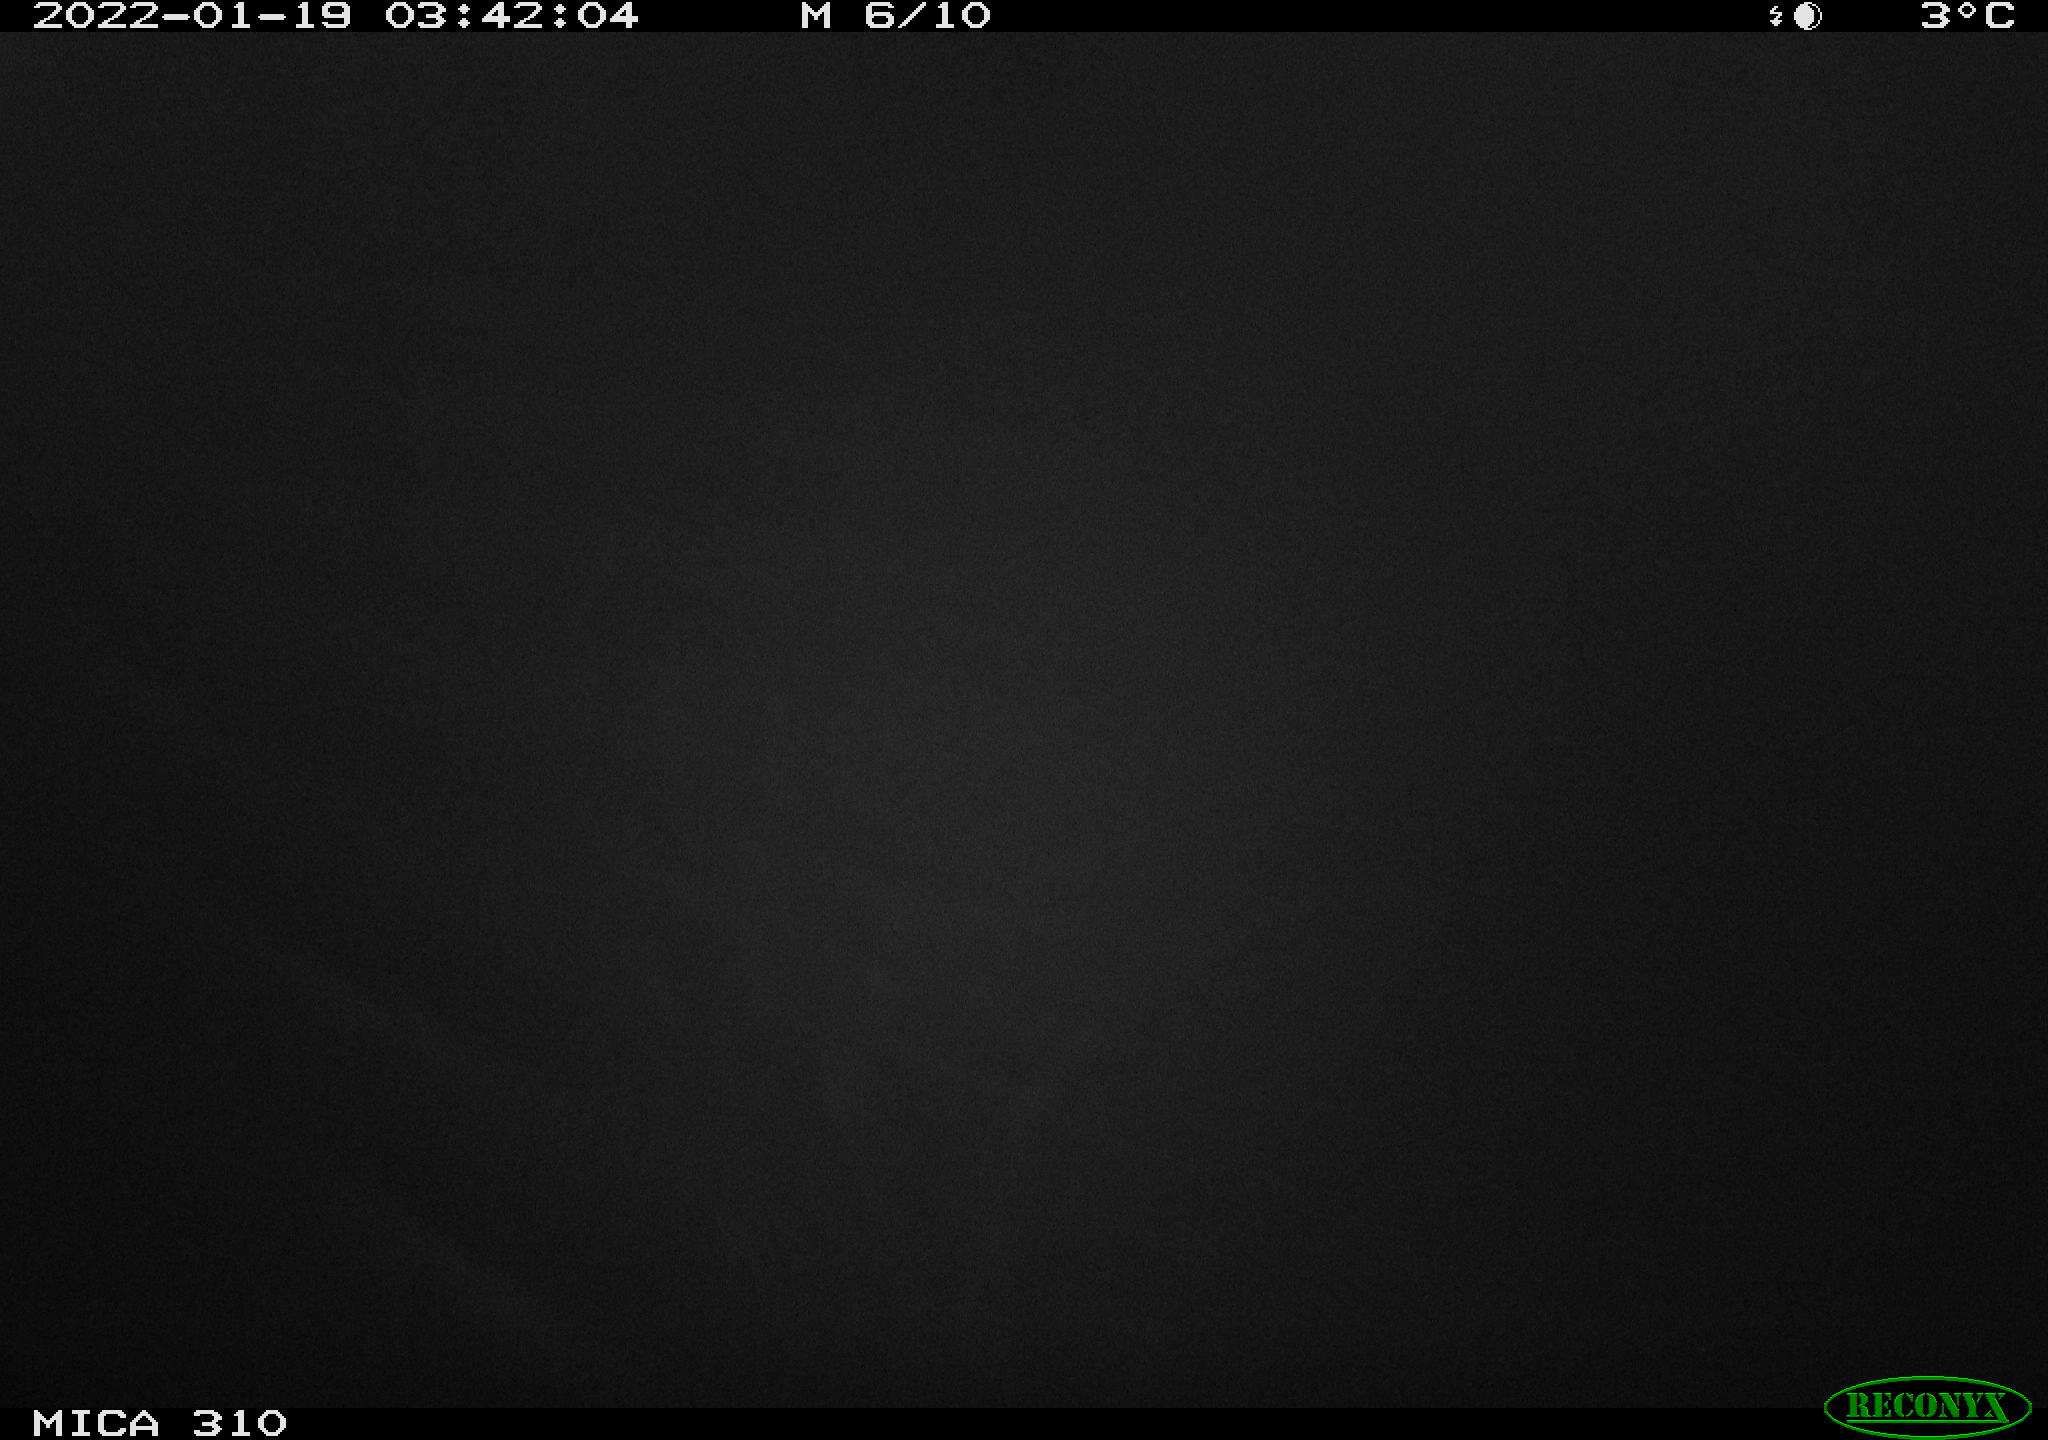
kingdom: Animalia
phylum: Chordata
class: Mammalia
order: Rodentia
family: Cricetidae
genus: Ondatra
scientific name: Ondatra zibethicus
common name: Muskrat
